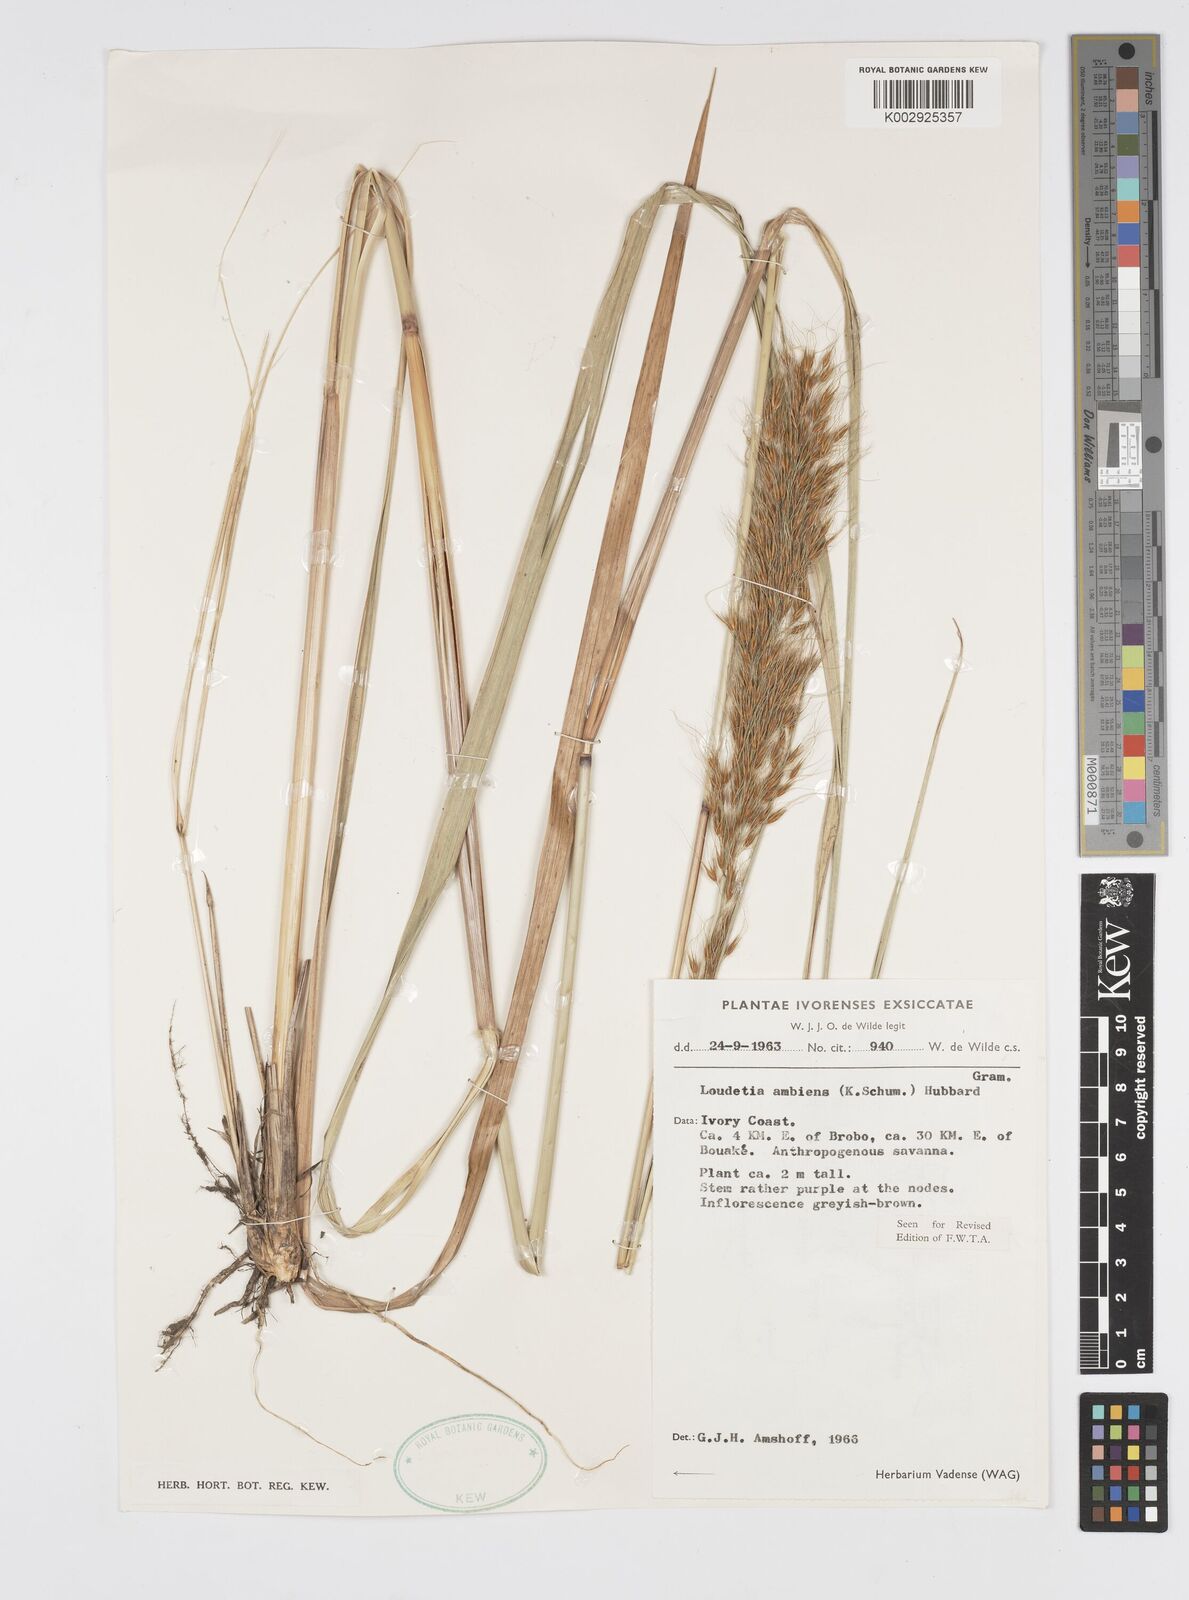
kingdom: Plantae
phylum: Tracheophyta
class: Liliopsida
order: Poales
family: Poaceae
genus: Loudetiopsis
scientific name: Loudetiopsis ambiens
